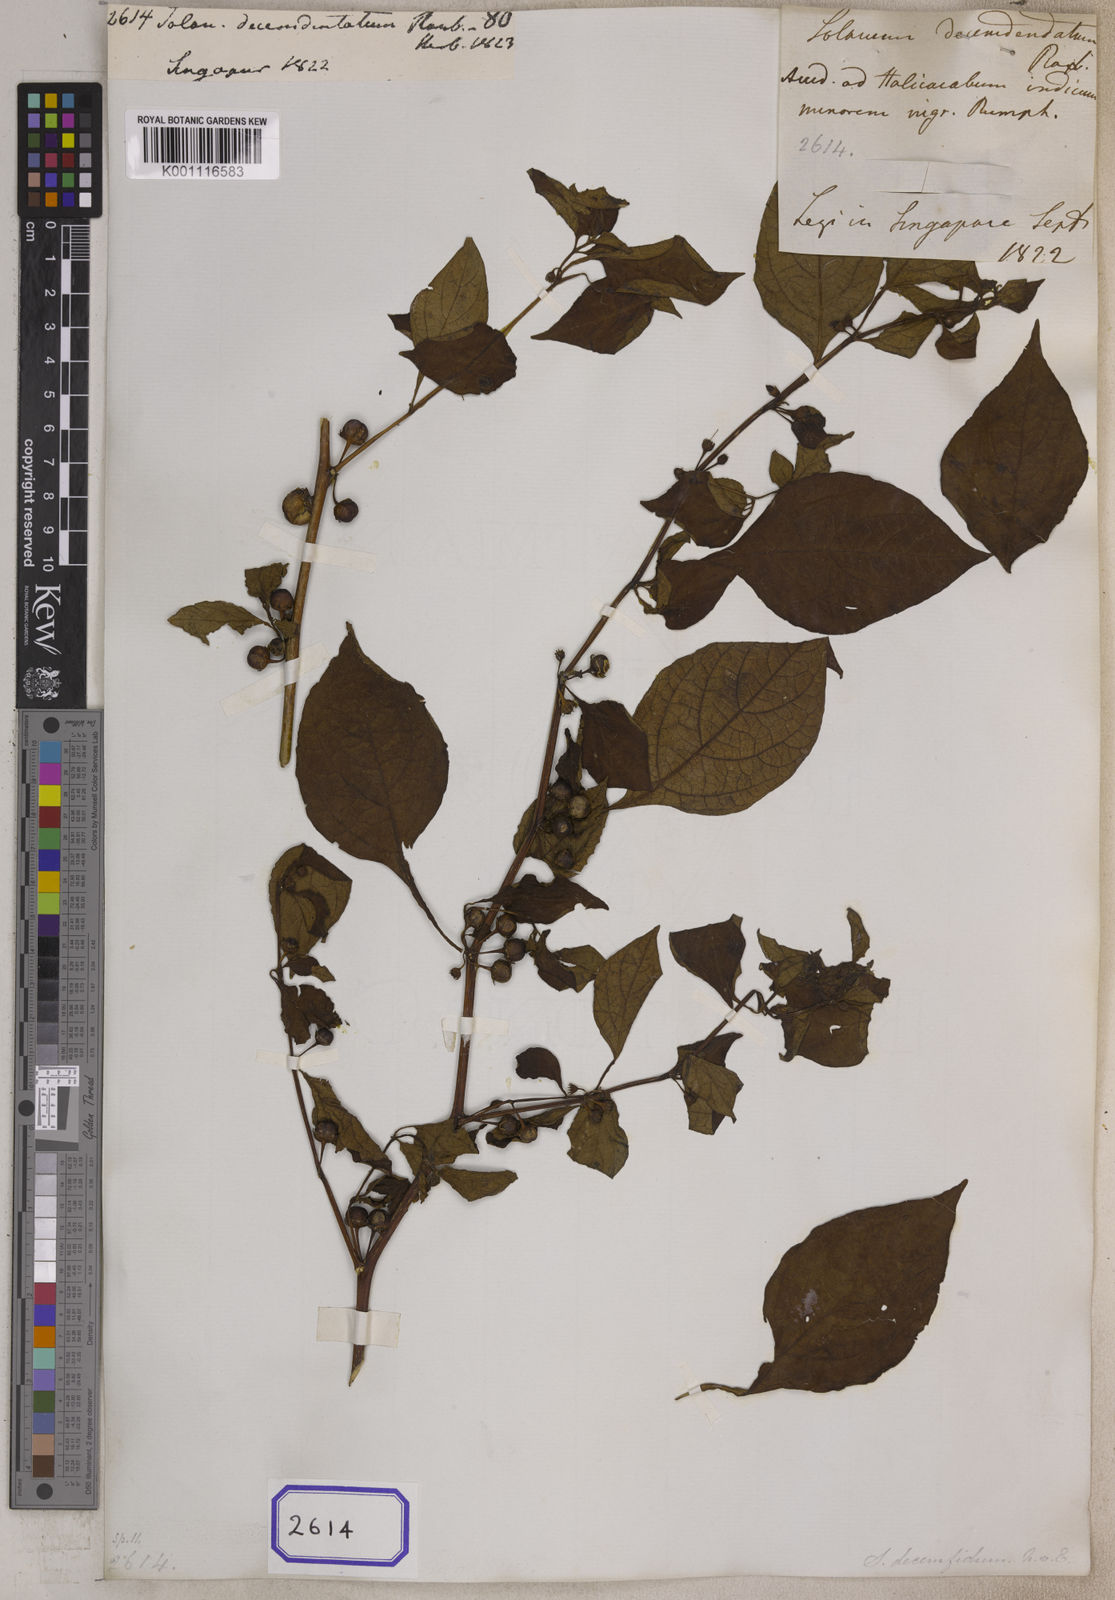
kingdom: Plantae
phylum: Tracheophyta
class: Magnoliopsida
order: Solanales
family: Solanaceae
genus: Lycianthes
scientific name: Lycianthes biflora
